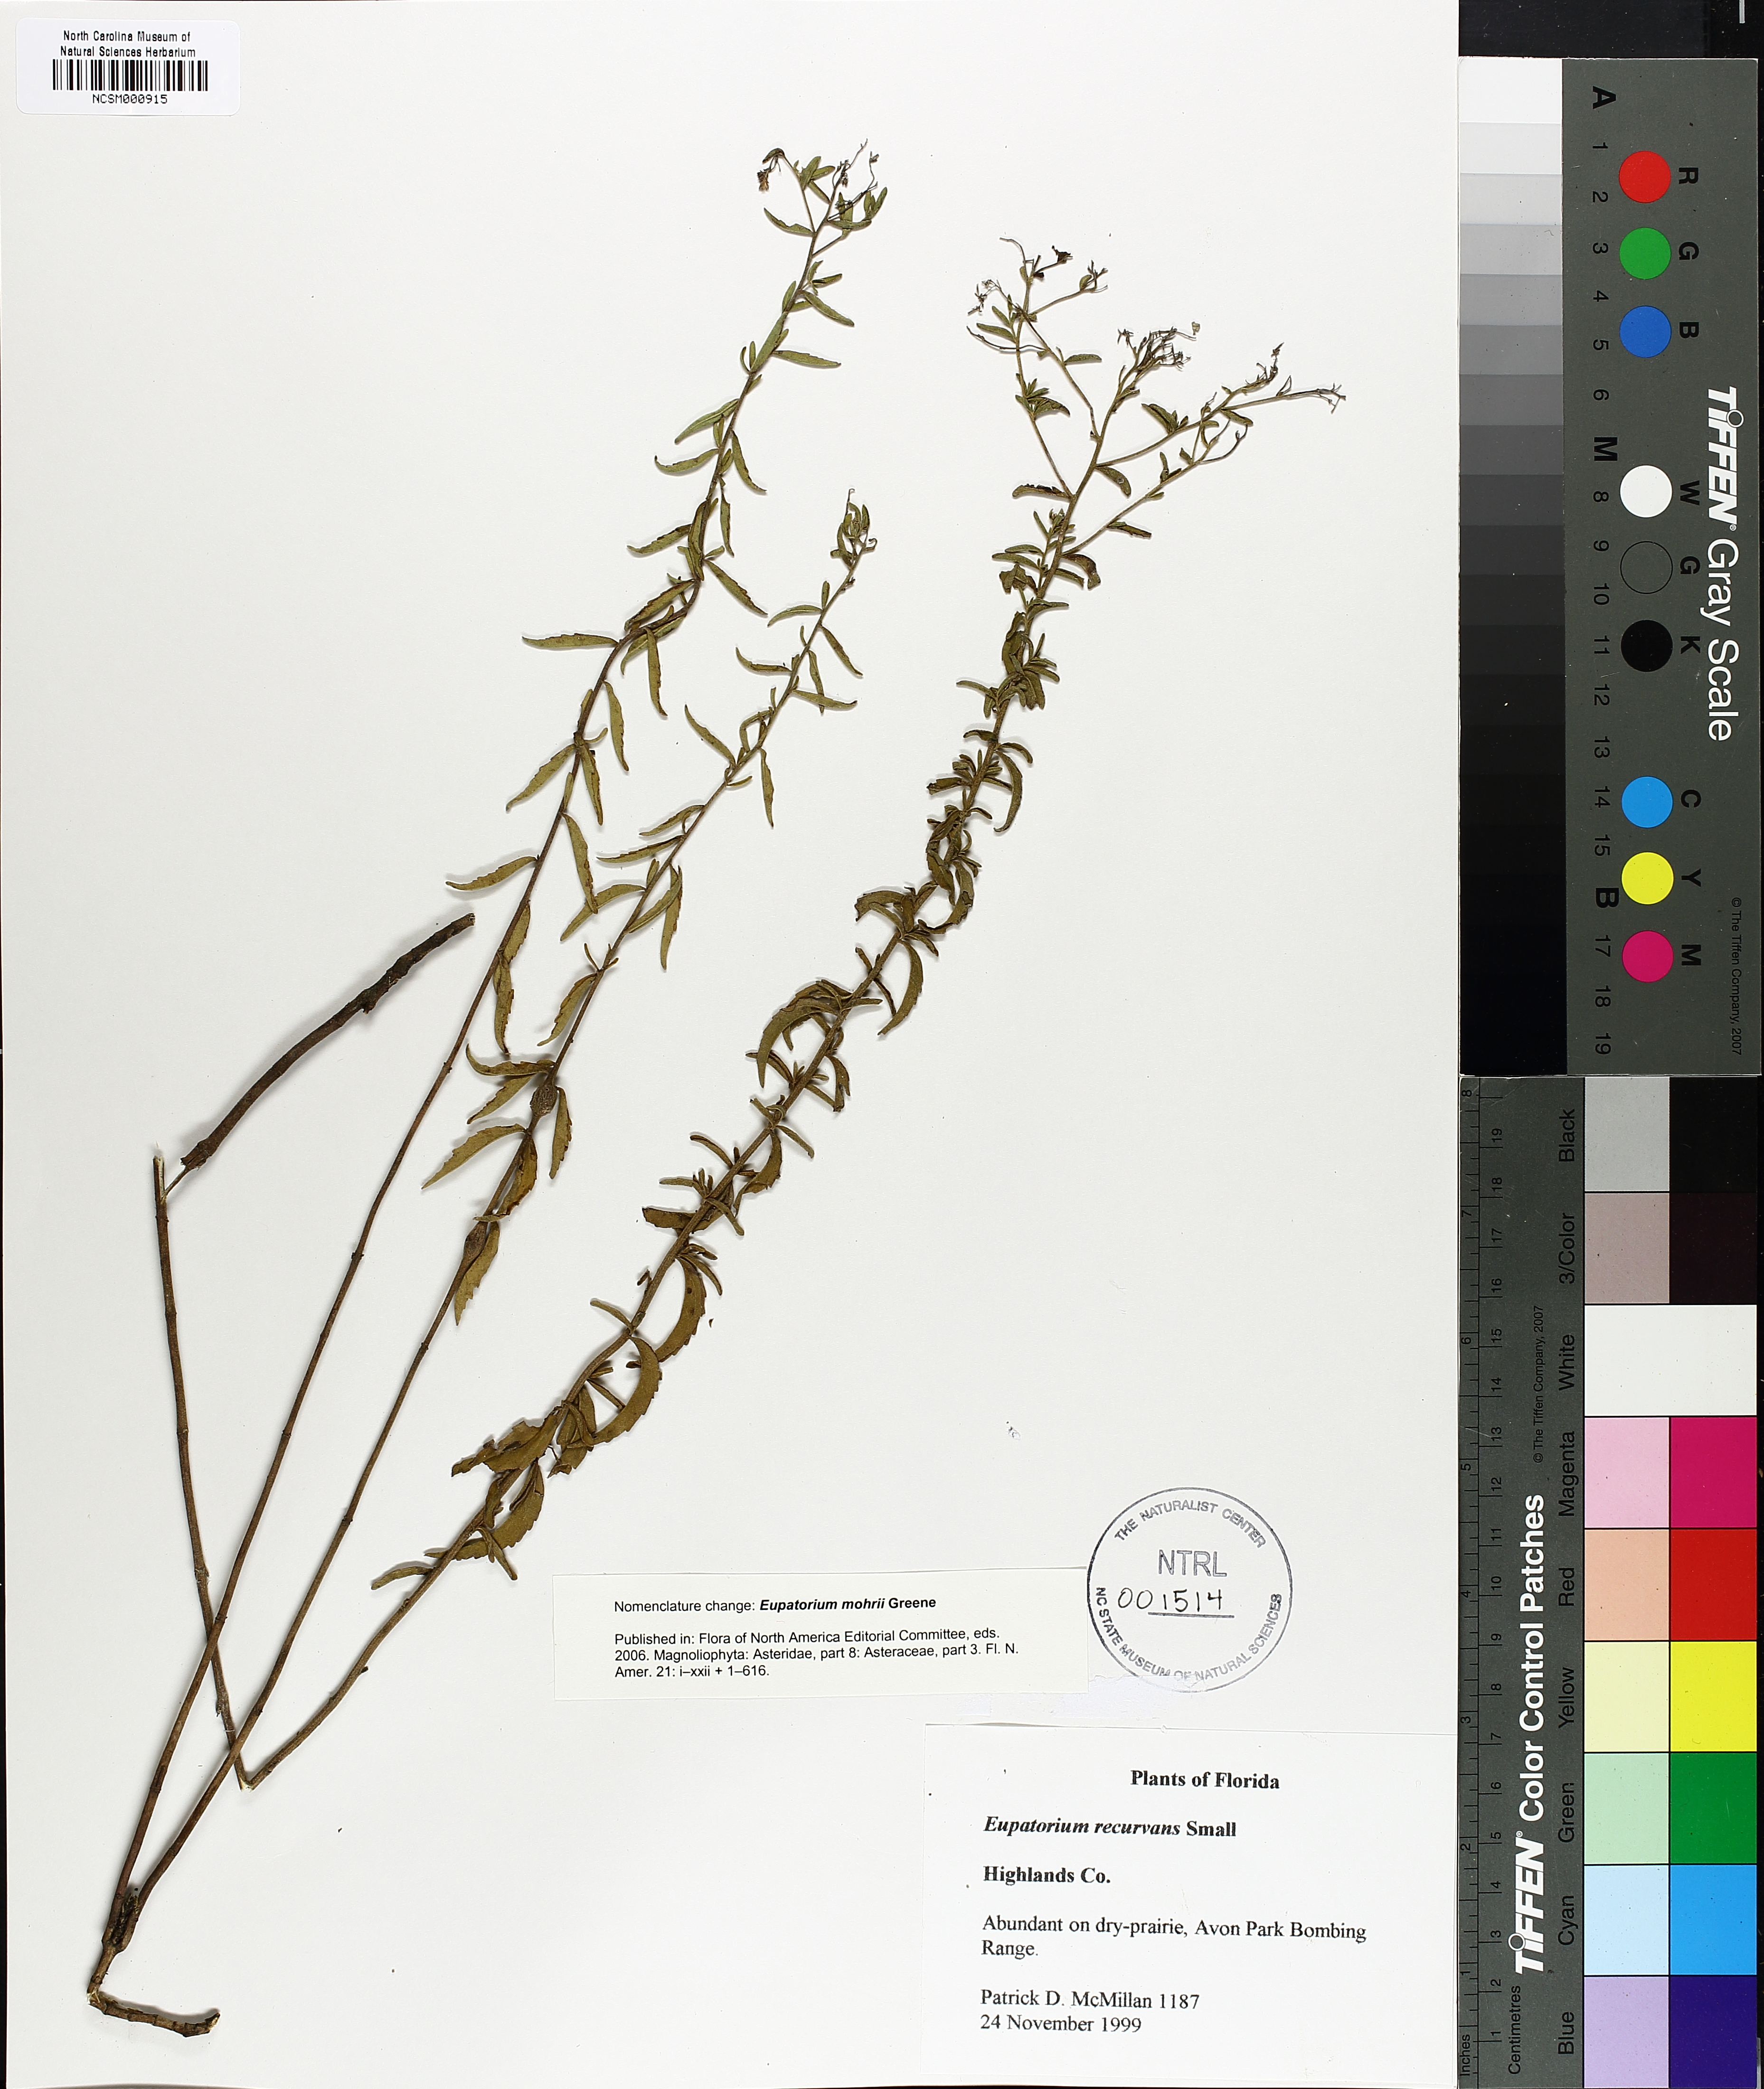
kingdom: Plantae
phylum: Tracheophyta
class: Magnoliopsida
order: Asterales
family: Asteraceae
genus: Eupatorium
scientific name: Eupatorium mohrii
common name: Mohr's thoroughwort
